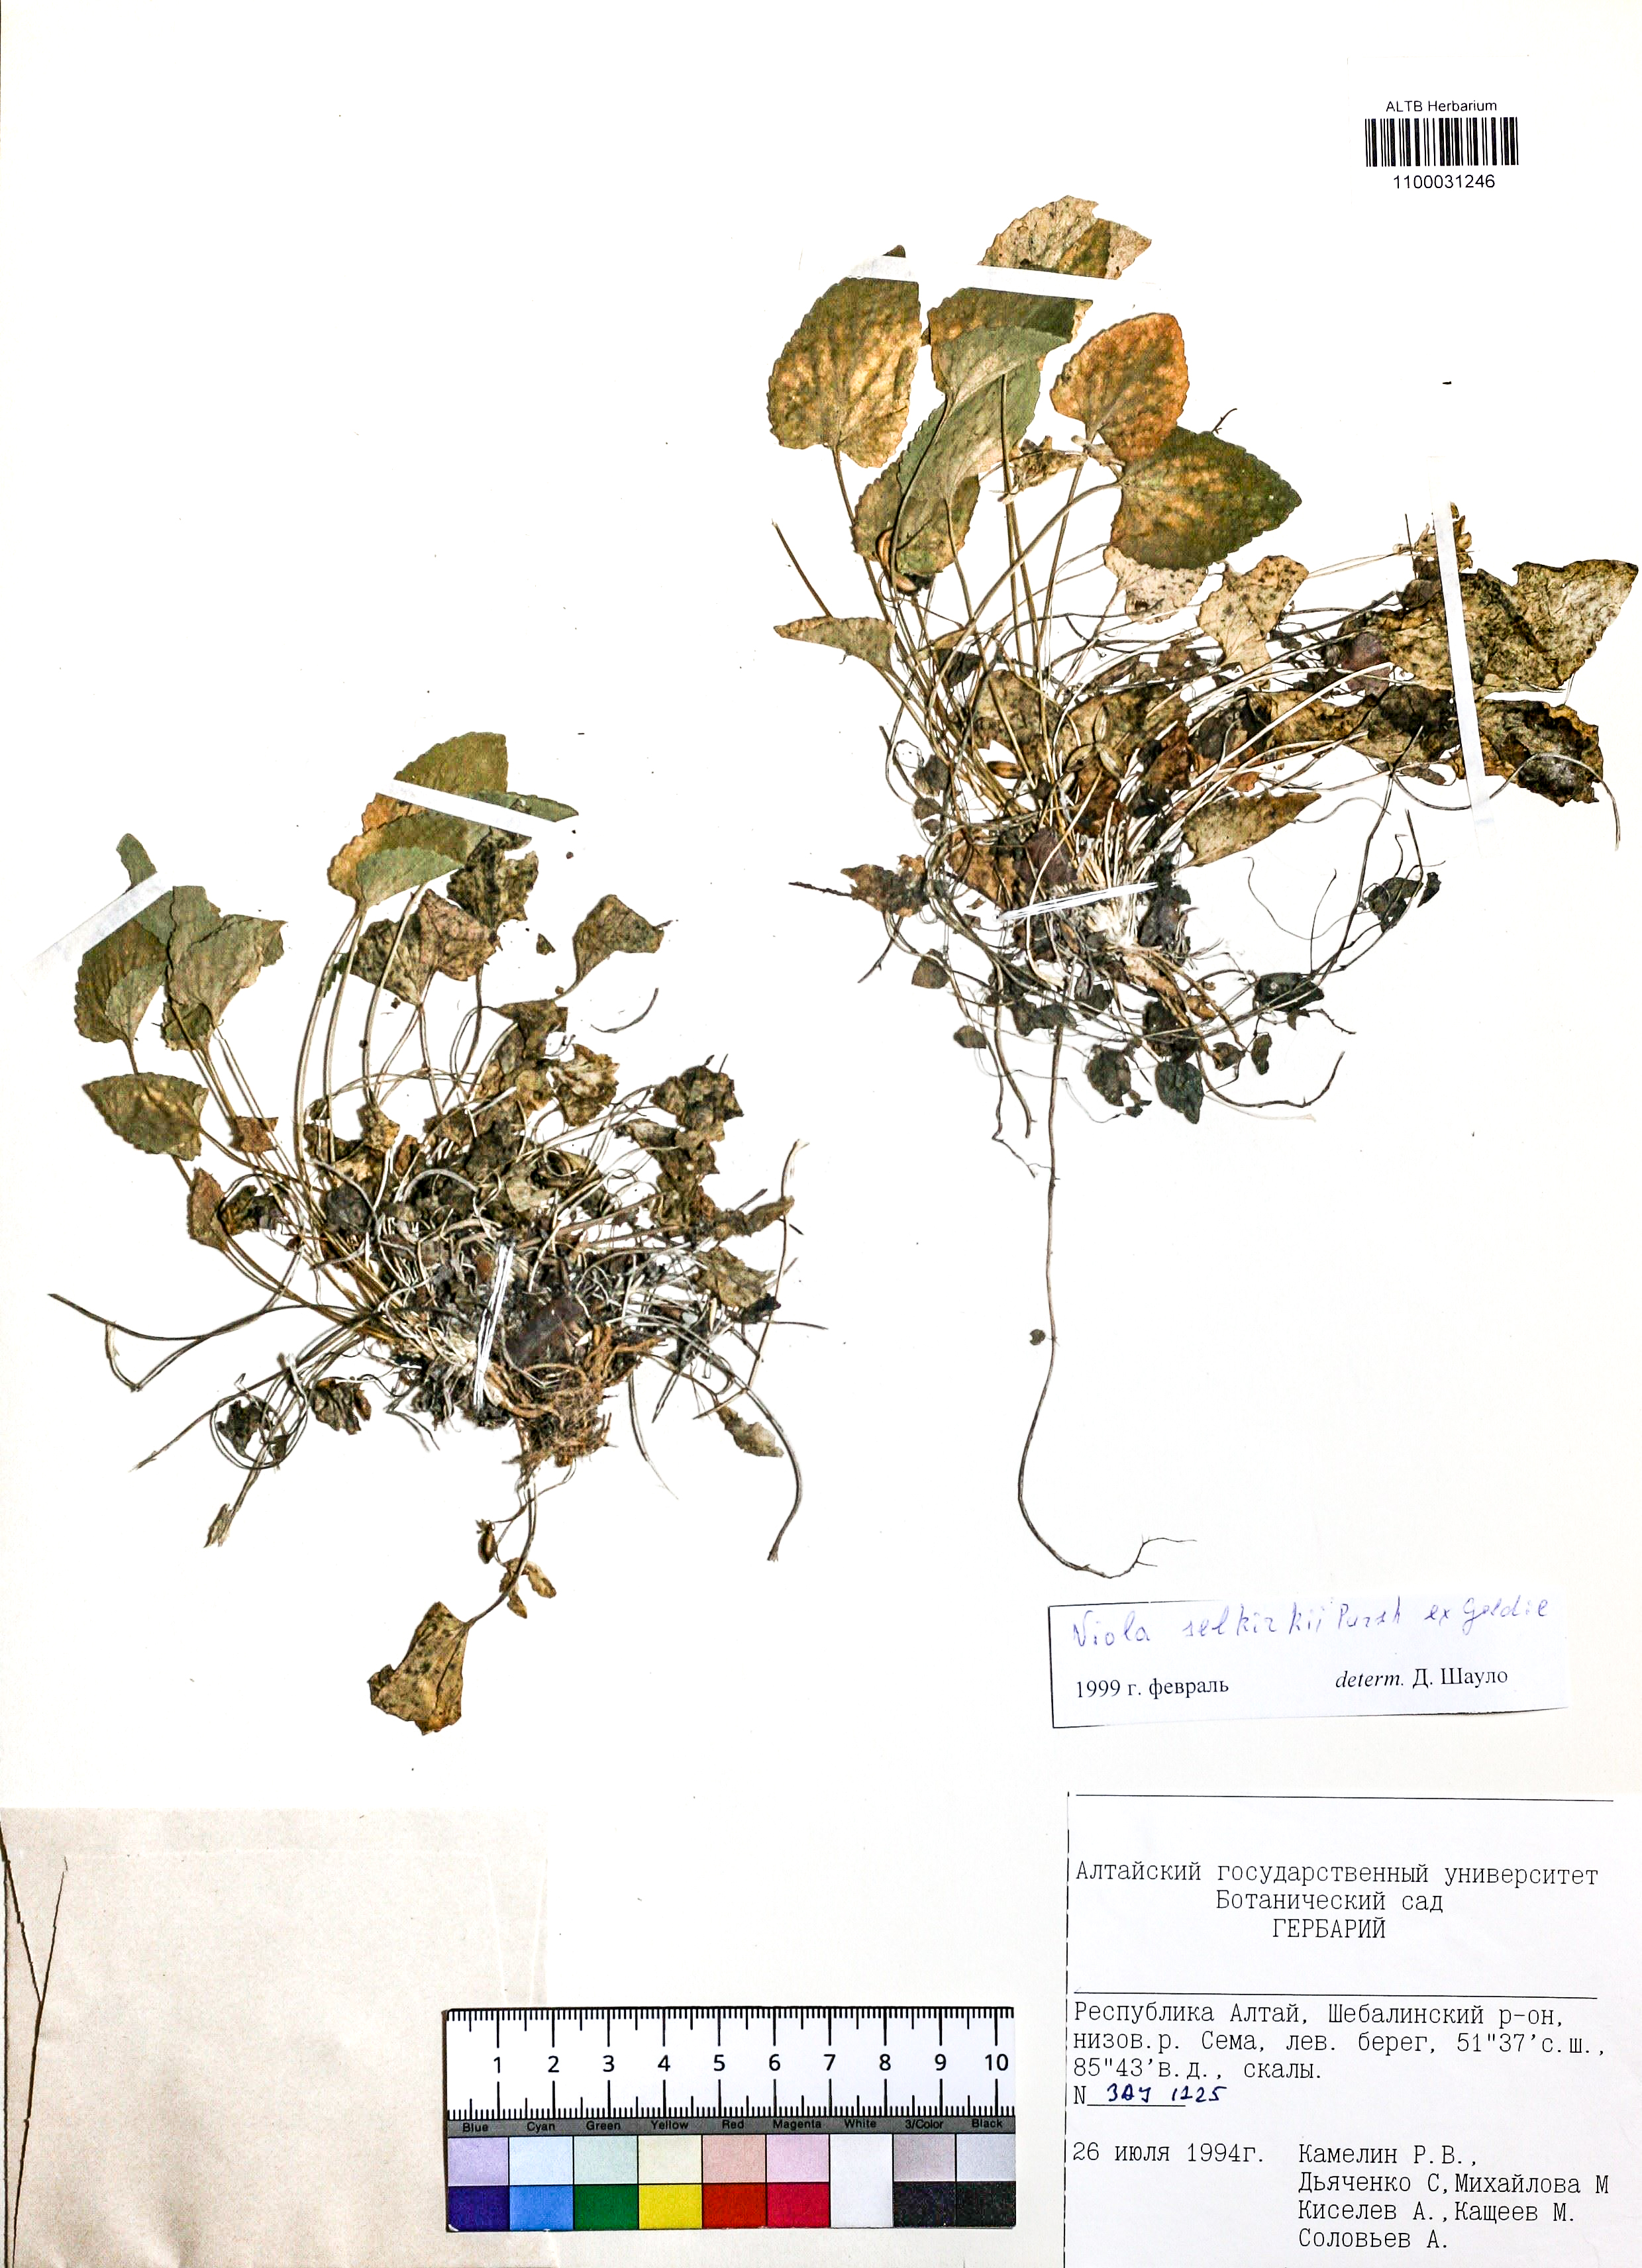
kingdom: Plantae
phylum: Tracheophyta
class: Magnoliopsida
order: Malpighiales
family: Violaceae
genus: Viola
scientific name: Viola selkirkii
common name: Selkirk's violet
